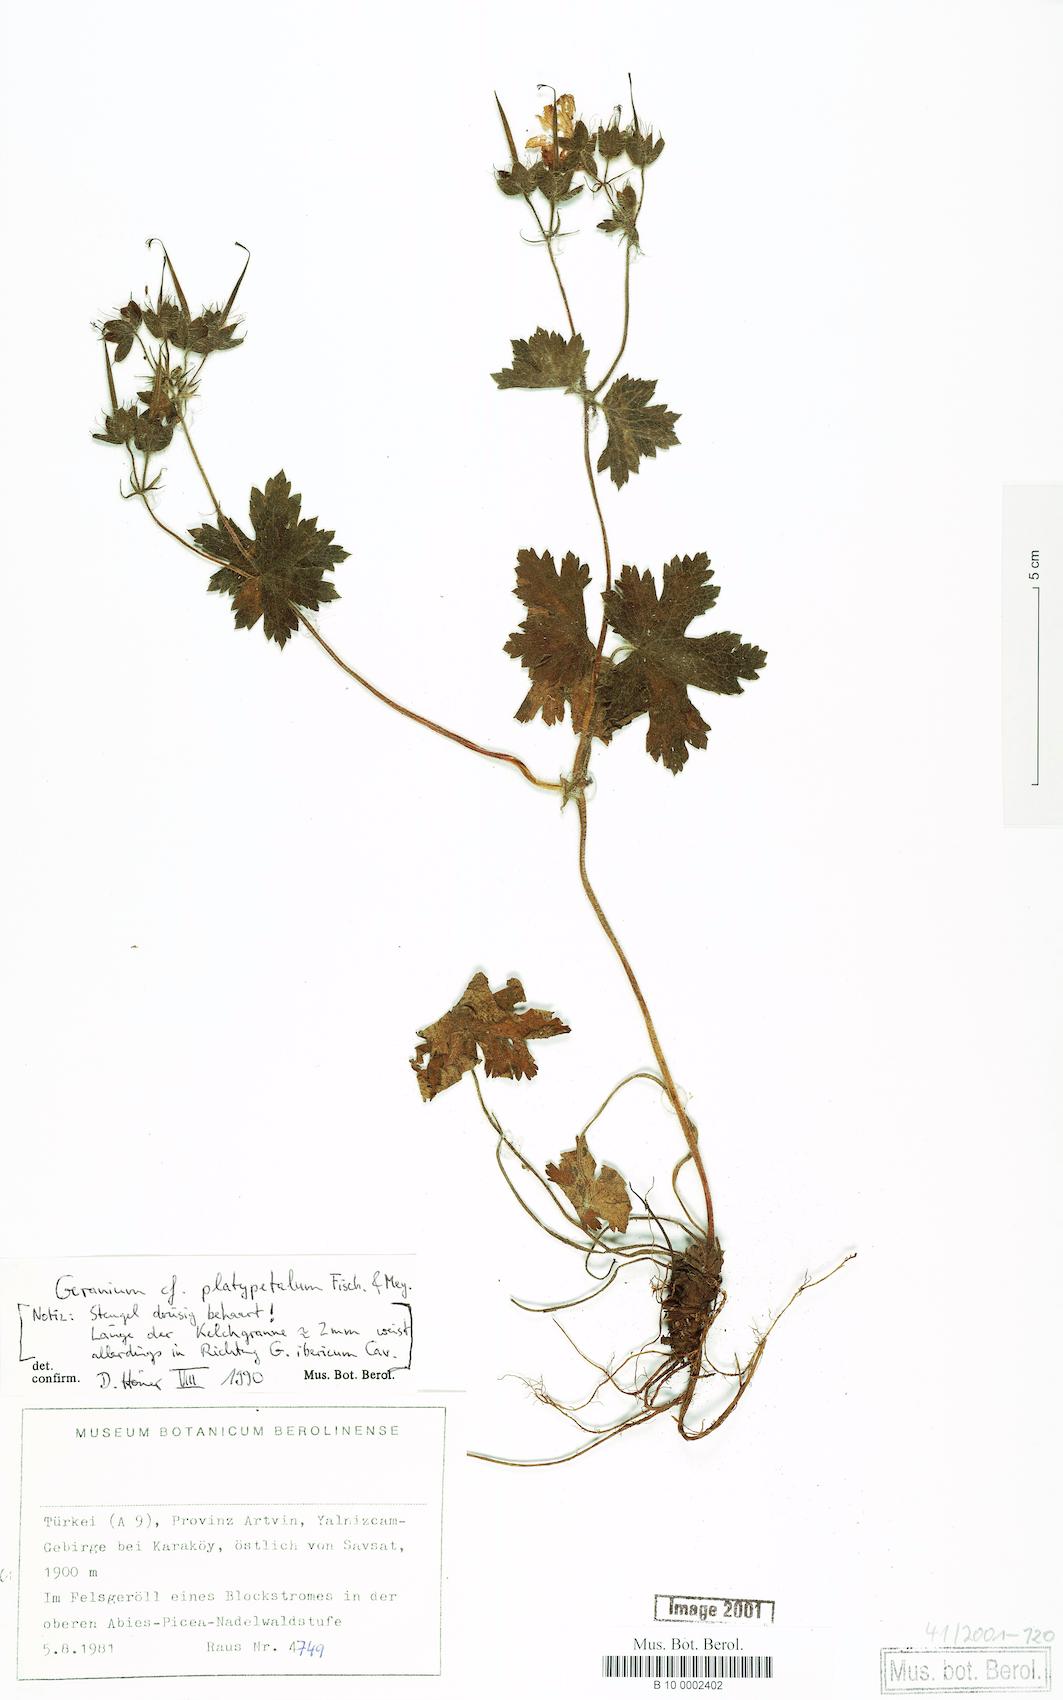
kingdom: Plantae
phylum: Tracheophyta
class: Magnoliopsida
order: Geraniales
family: Geraniaceae
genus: Geranium
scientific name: Geranium platypetalum
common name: Glandular crane's-bill
